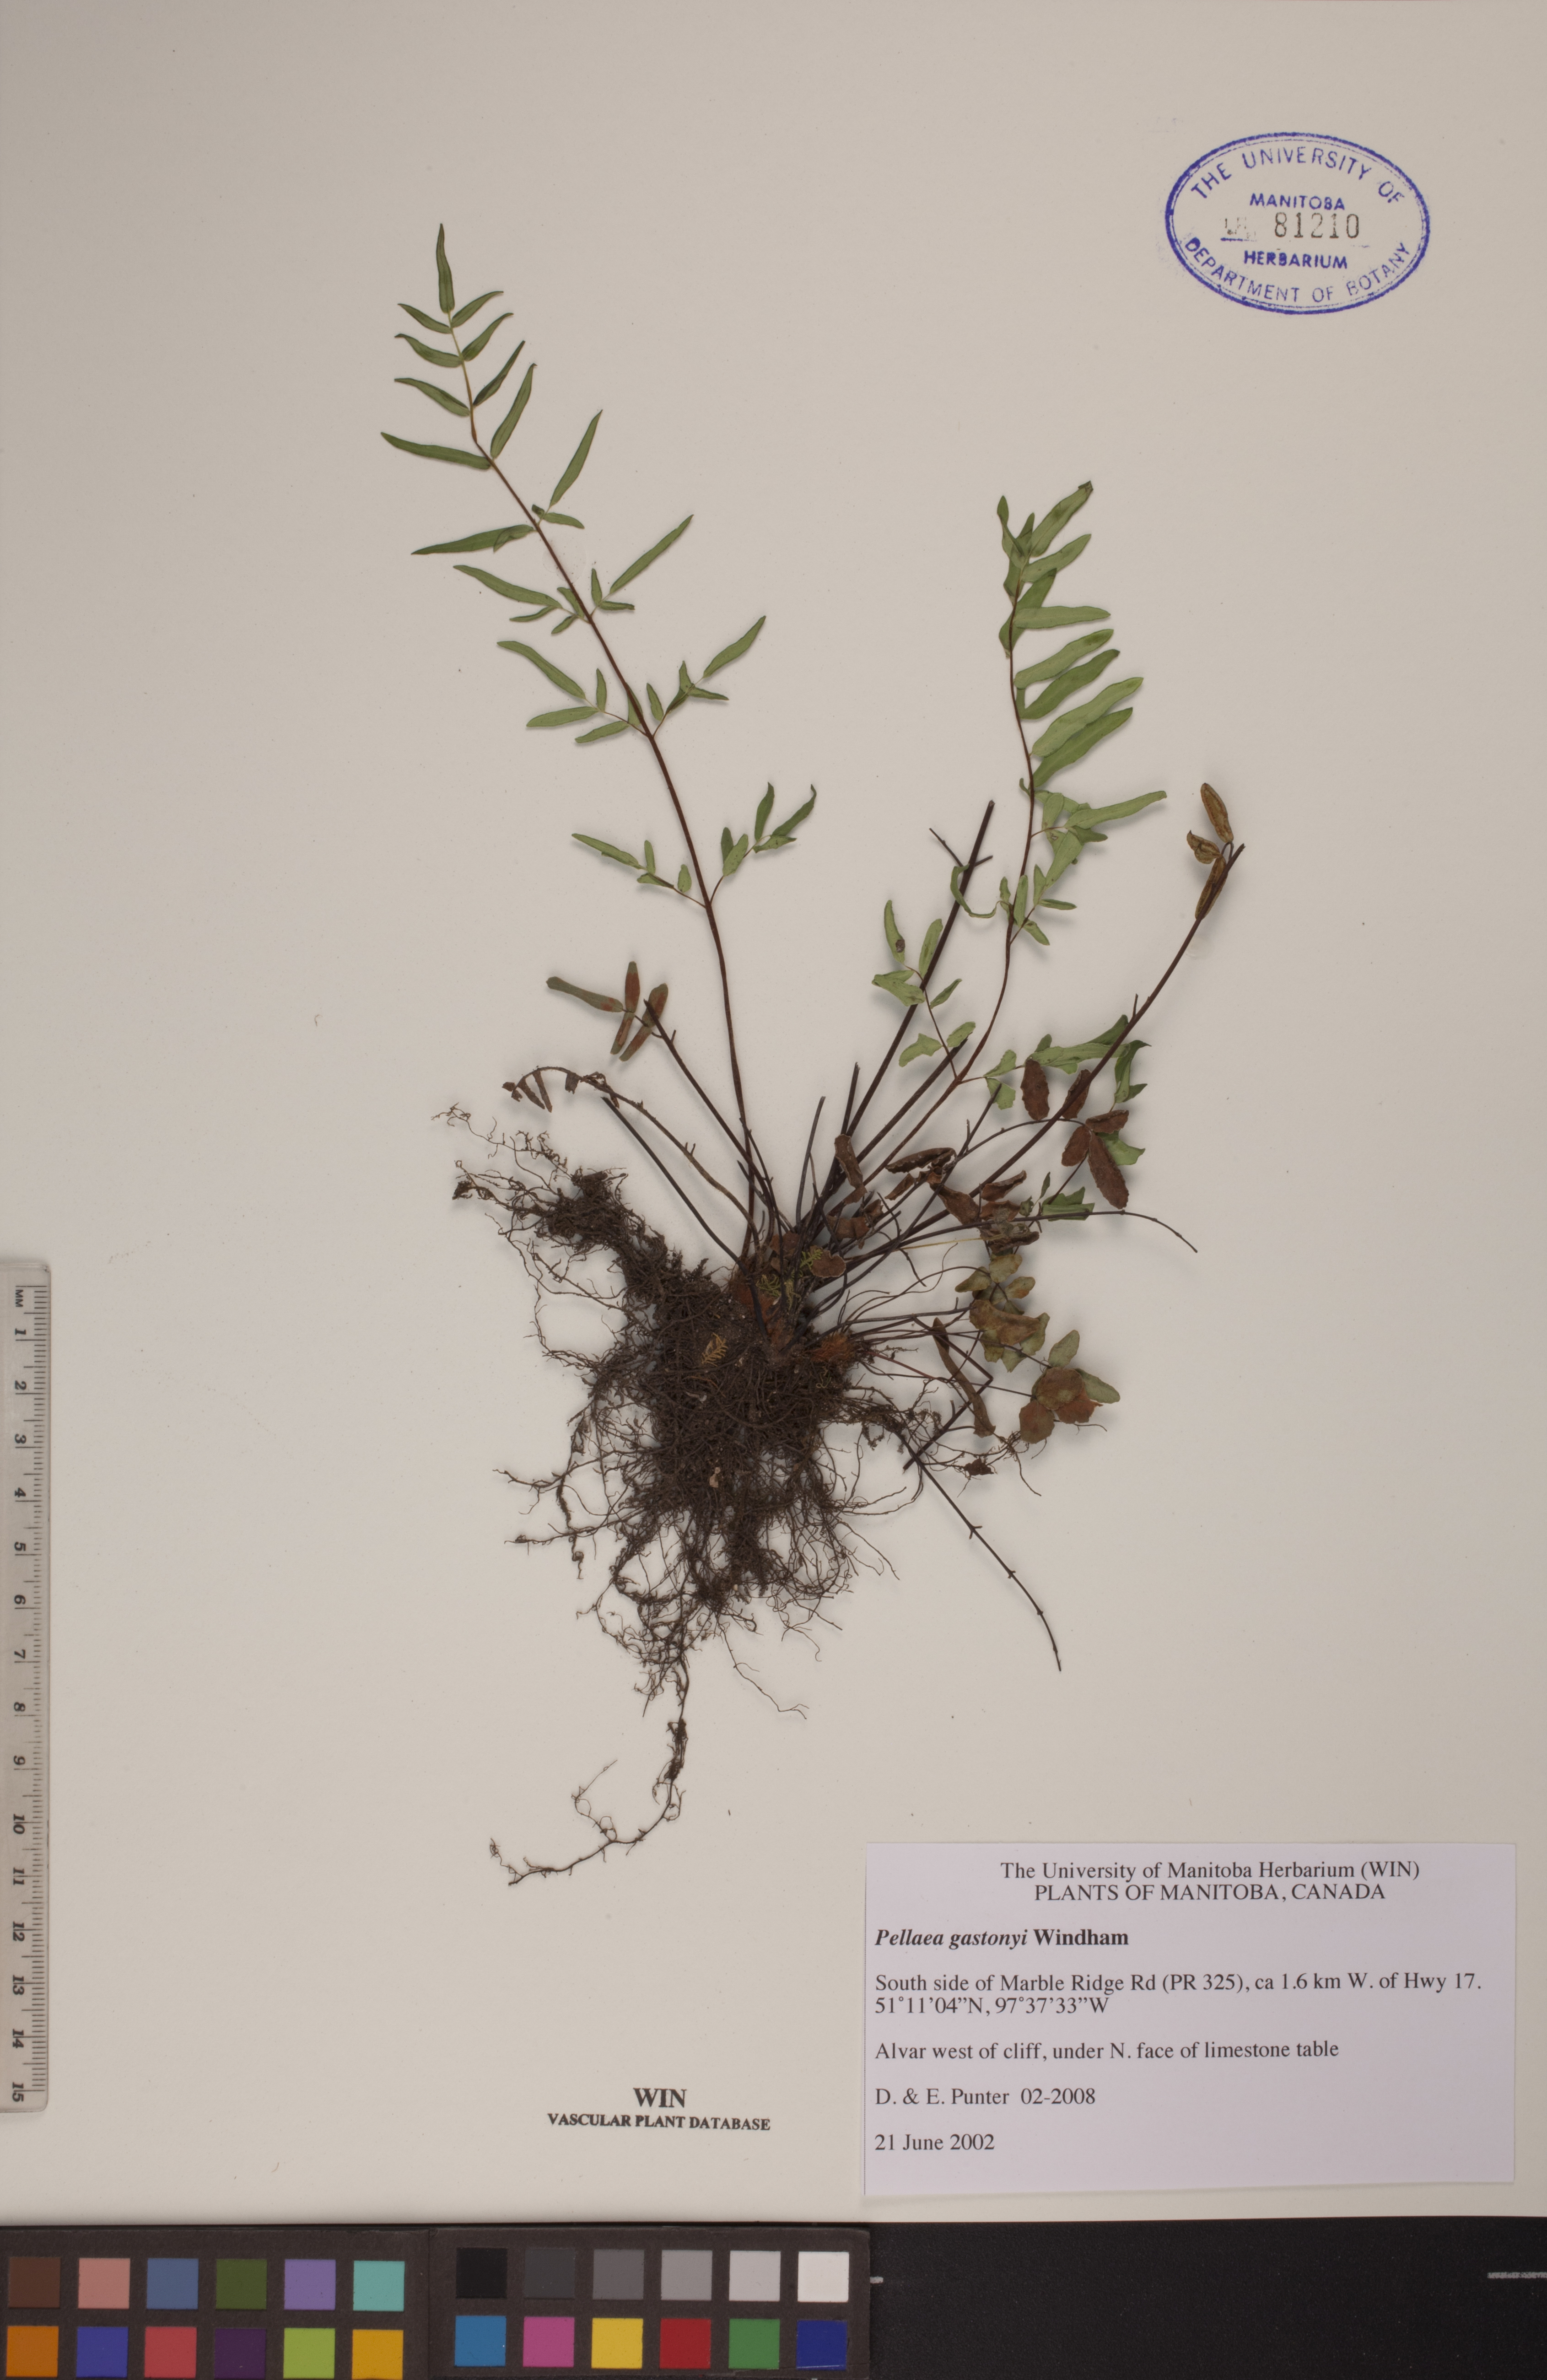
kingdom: Plantae
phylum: Tracheophyta
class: Polypodiopsida
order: Polypodiales
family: Pteridaceae
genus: Pellaea
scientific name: Pellaea gastonyi
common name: Gastony's cliffbrake
